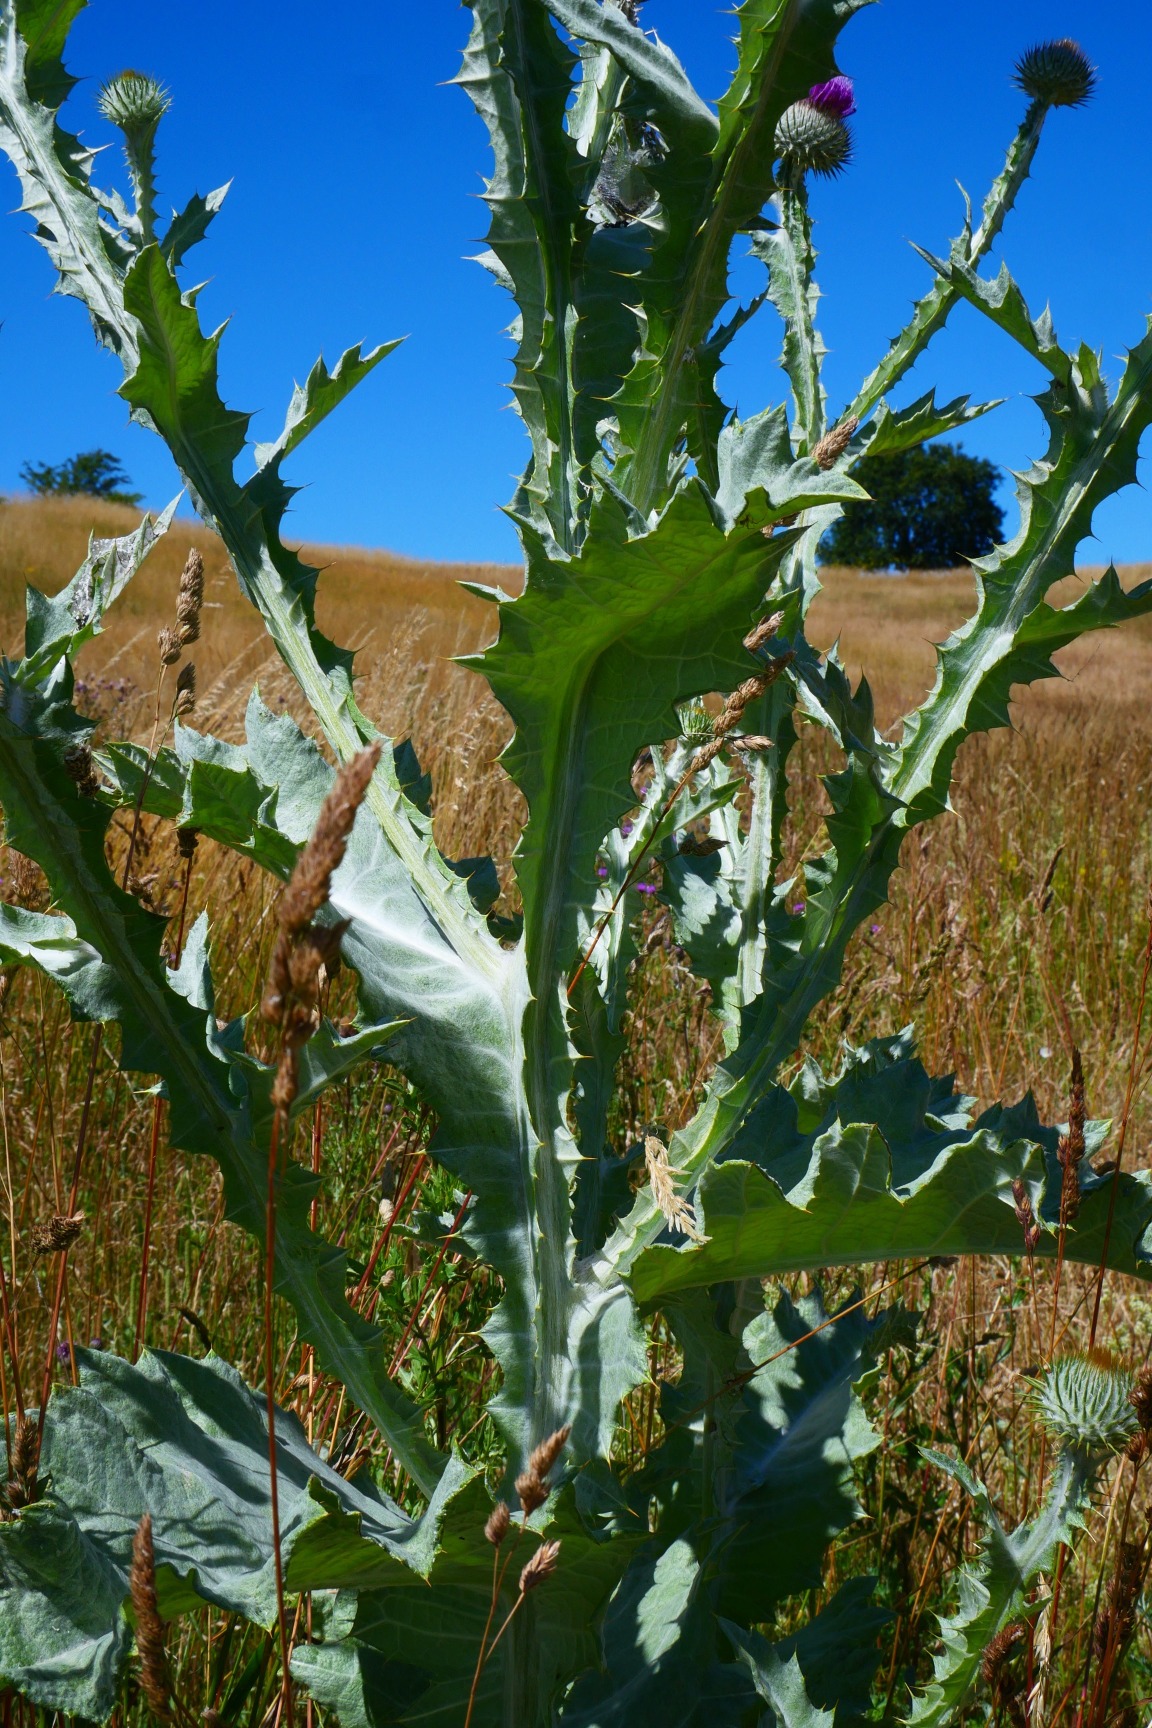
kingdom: Plantae
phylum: Tracheophyta
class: Magnoliopsida
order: Asterales
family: Asteraceae
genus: Onopordum
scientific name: Onopordum acanthium
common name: Æselfoder
